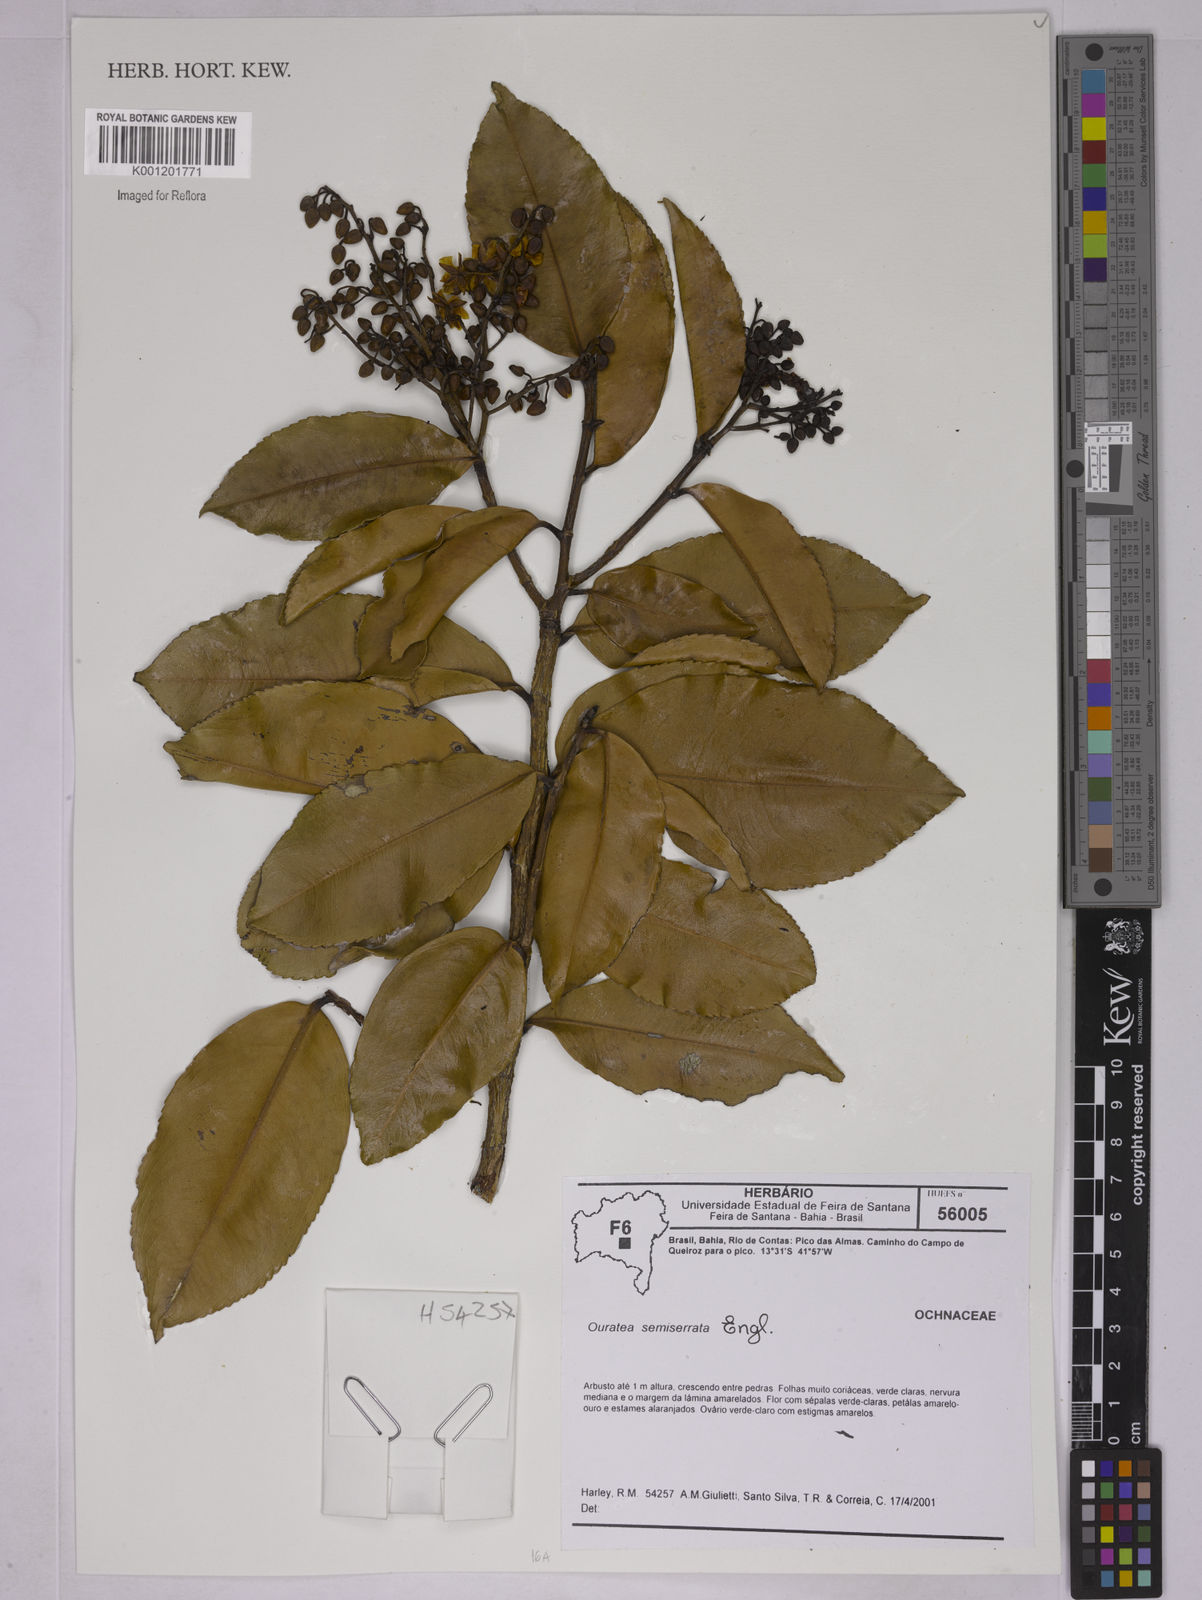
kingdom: Plantae
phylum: Tracheophyta
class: Magnoliopsida
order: Malpighiales
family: Ochnaceae
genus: Ouratea
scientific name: Ouratea semiserrata
